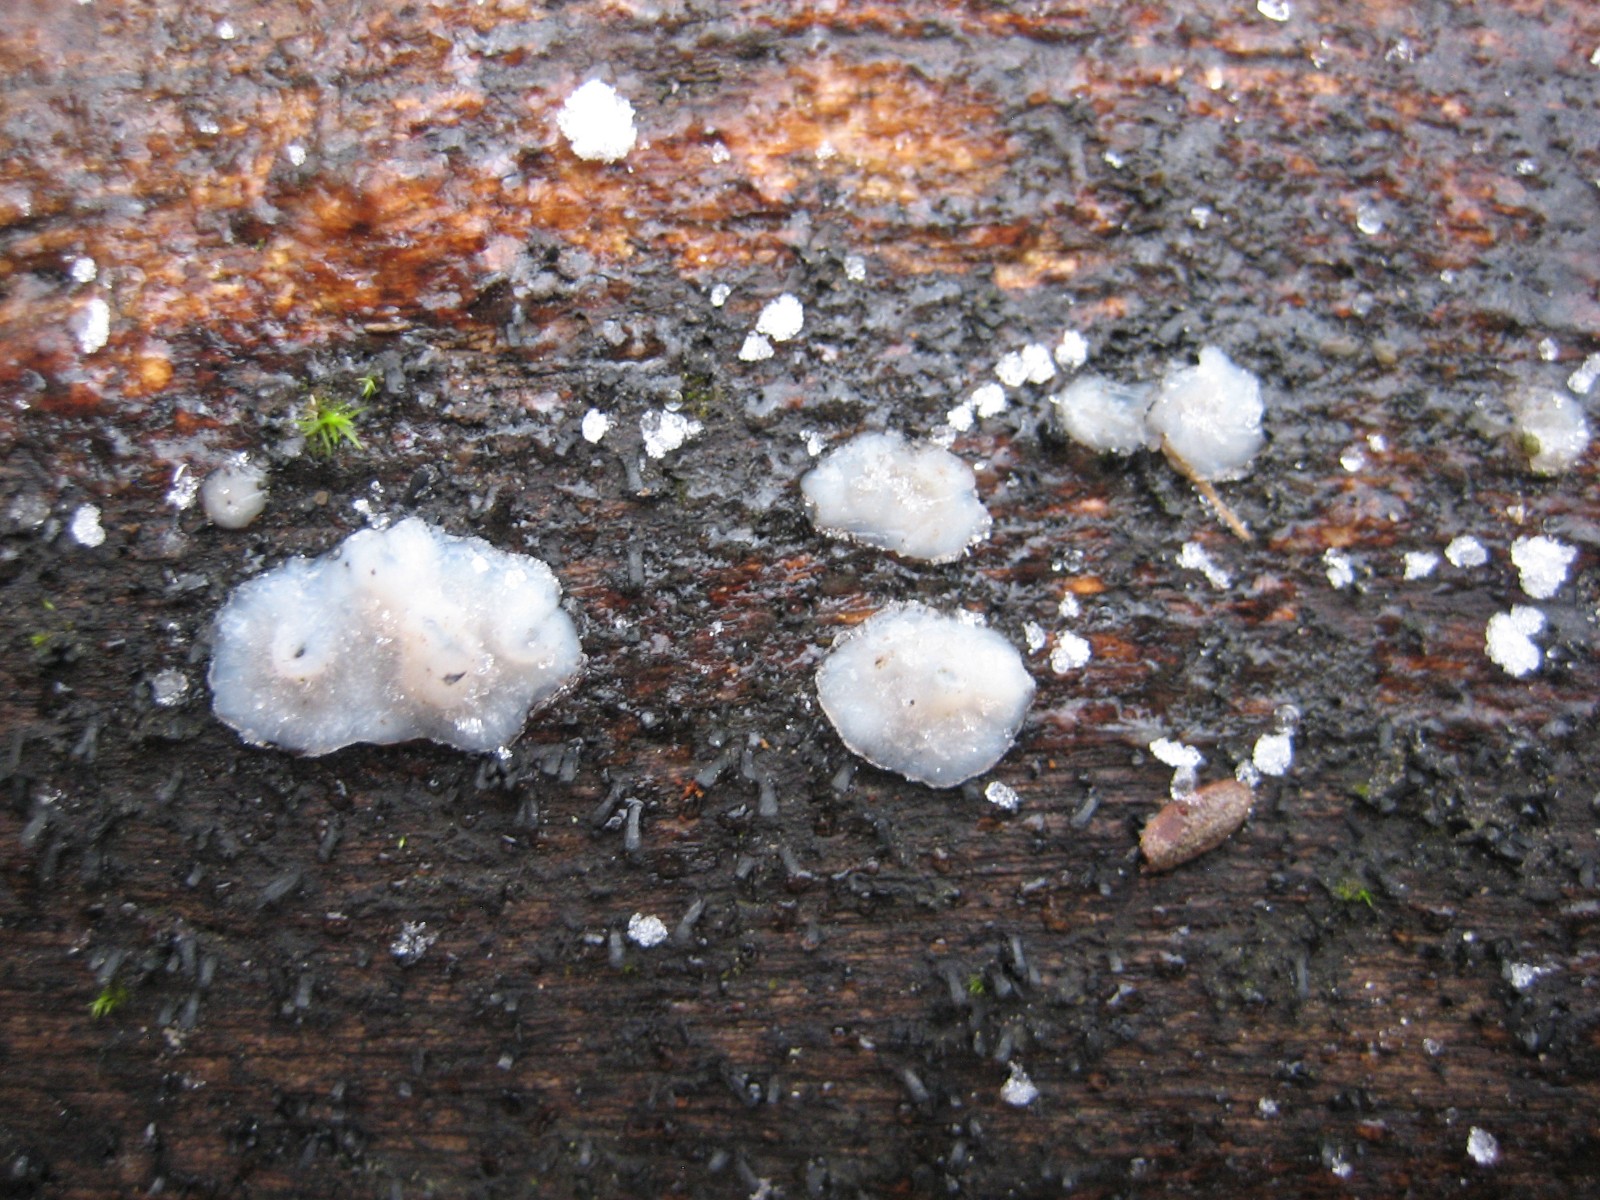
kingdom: Fungi
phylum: Basidiomycota
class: Agaricomycetes
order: Auriculariales
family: Auriculariaceae
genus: Exidia
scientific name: Exidia thuretiana
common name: hvidlig bævretop
